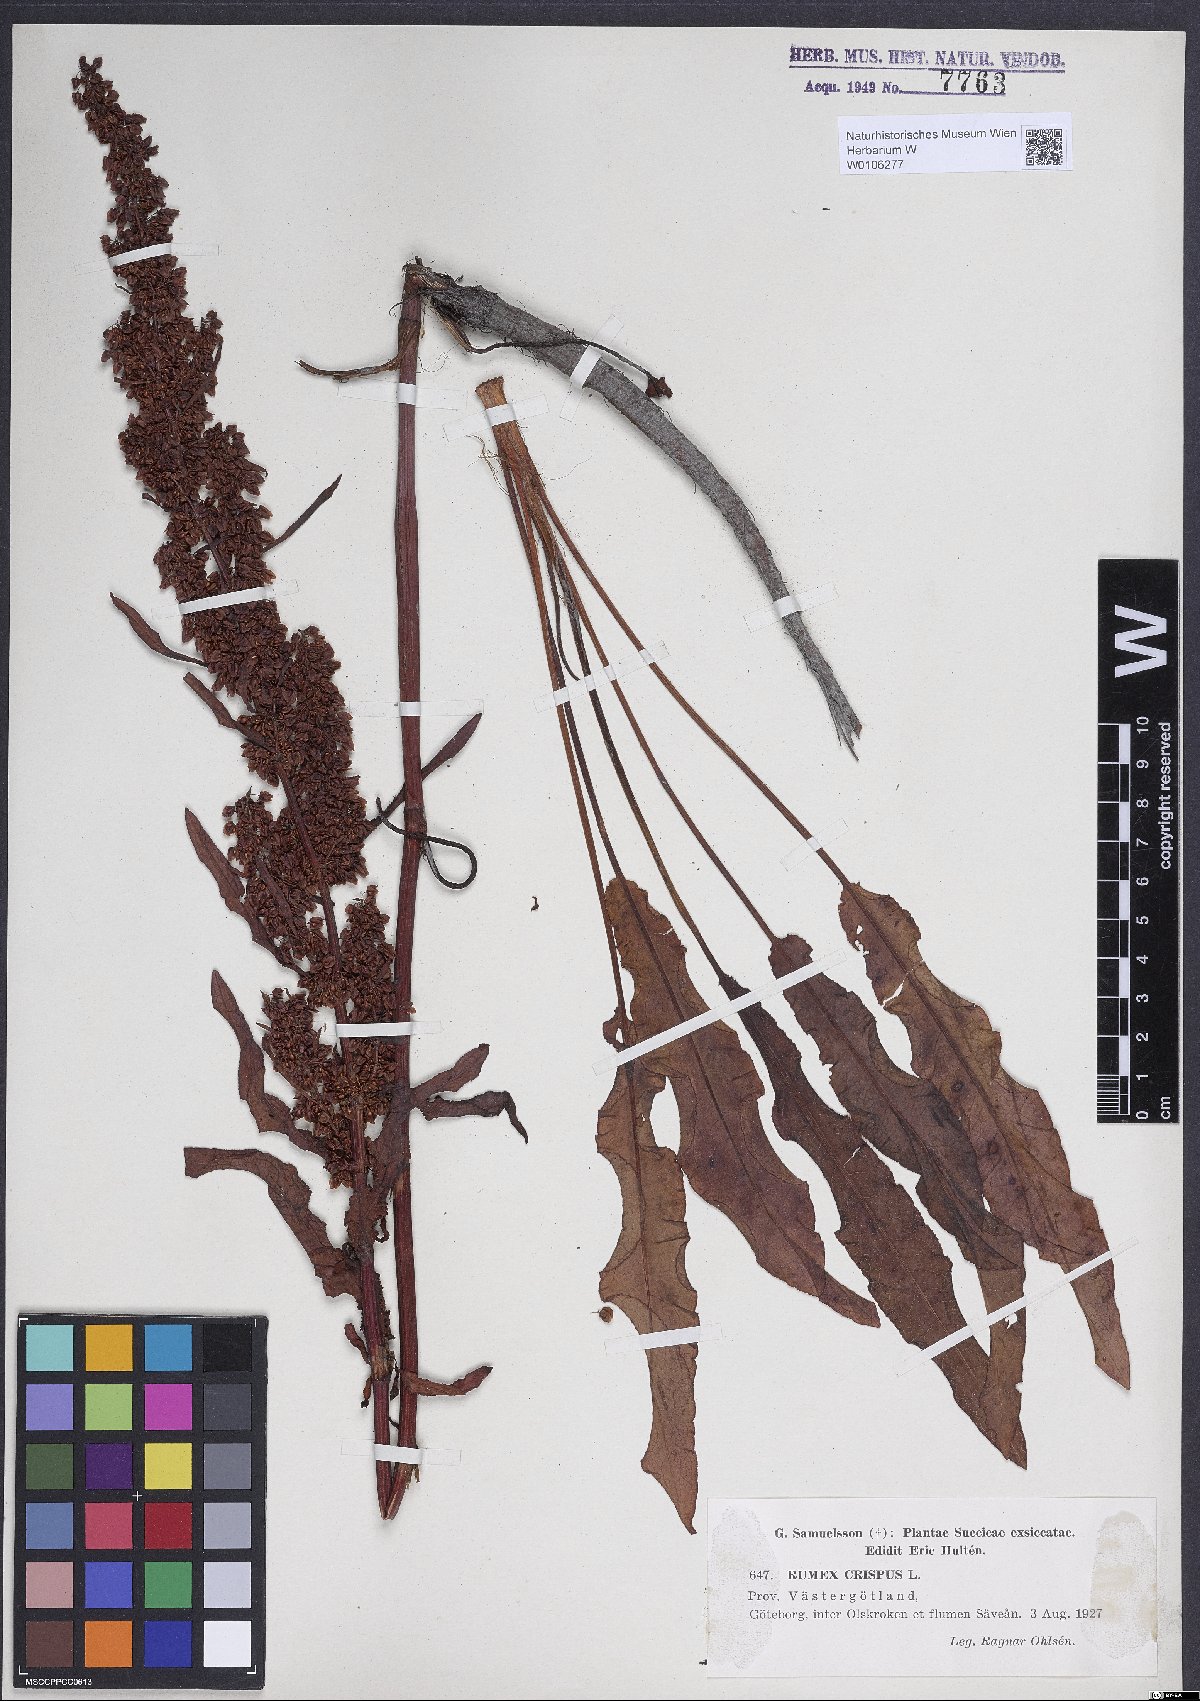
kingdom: Plantae
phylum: Tracheophyta
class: Magnoliopsida
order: Caryophyllales
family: Polygonaceae
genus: Rumex
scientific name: Rumex crispus
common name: Curled dock
